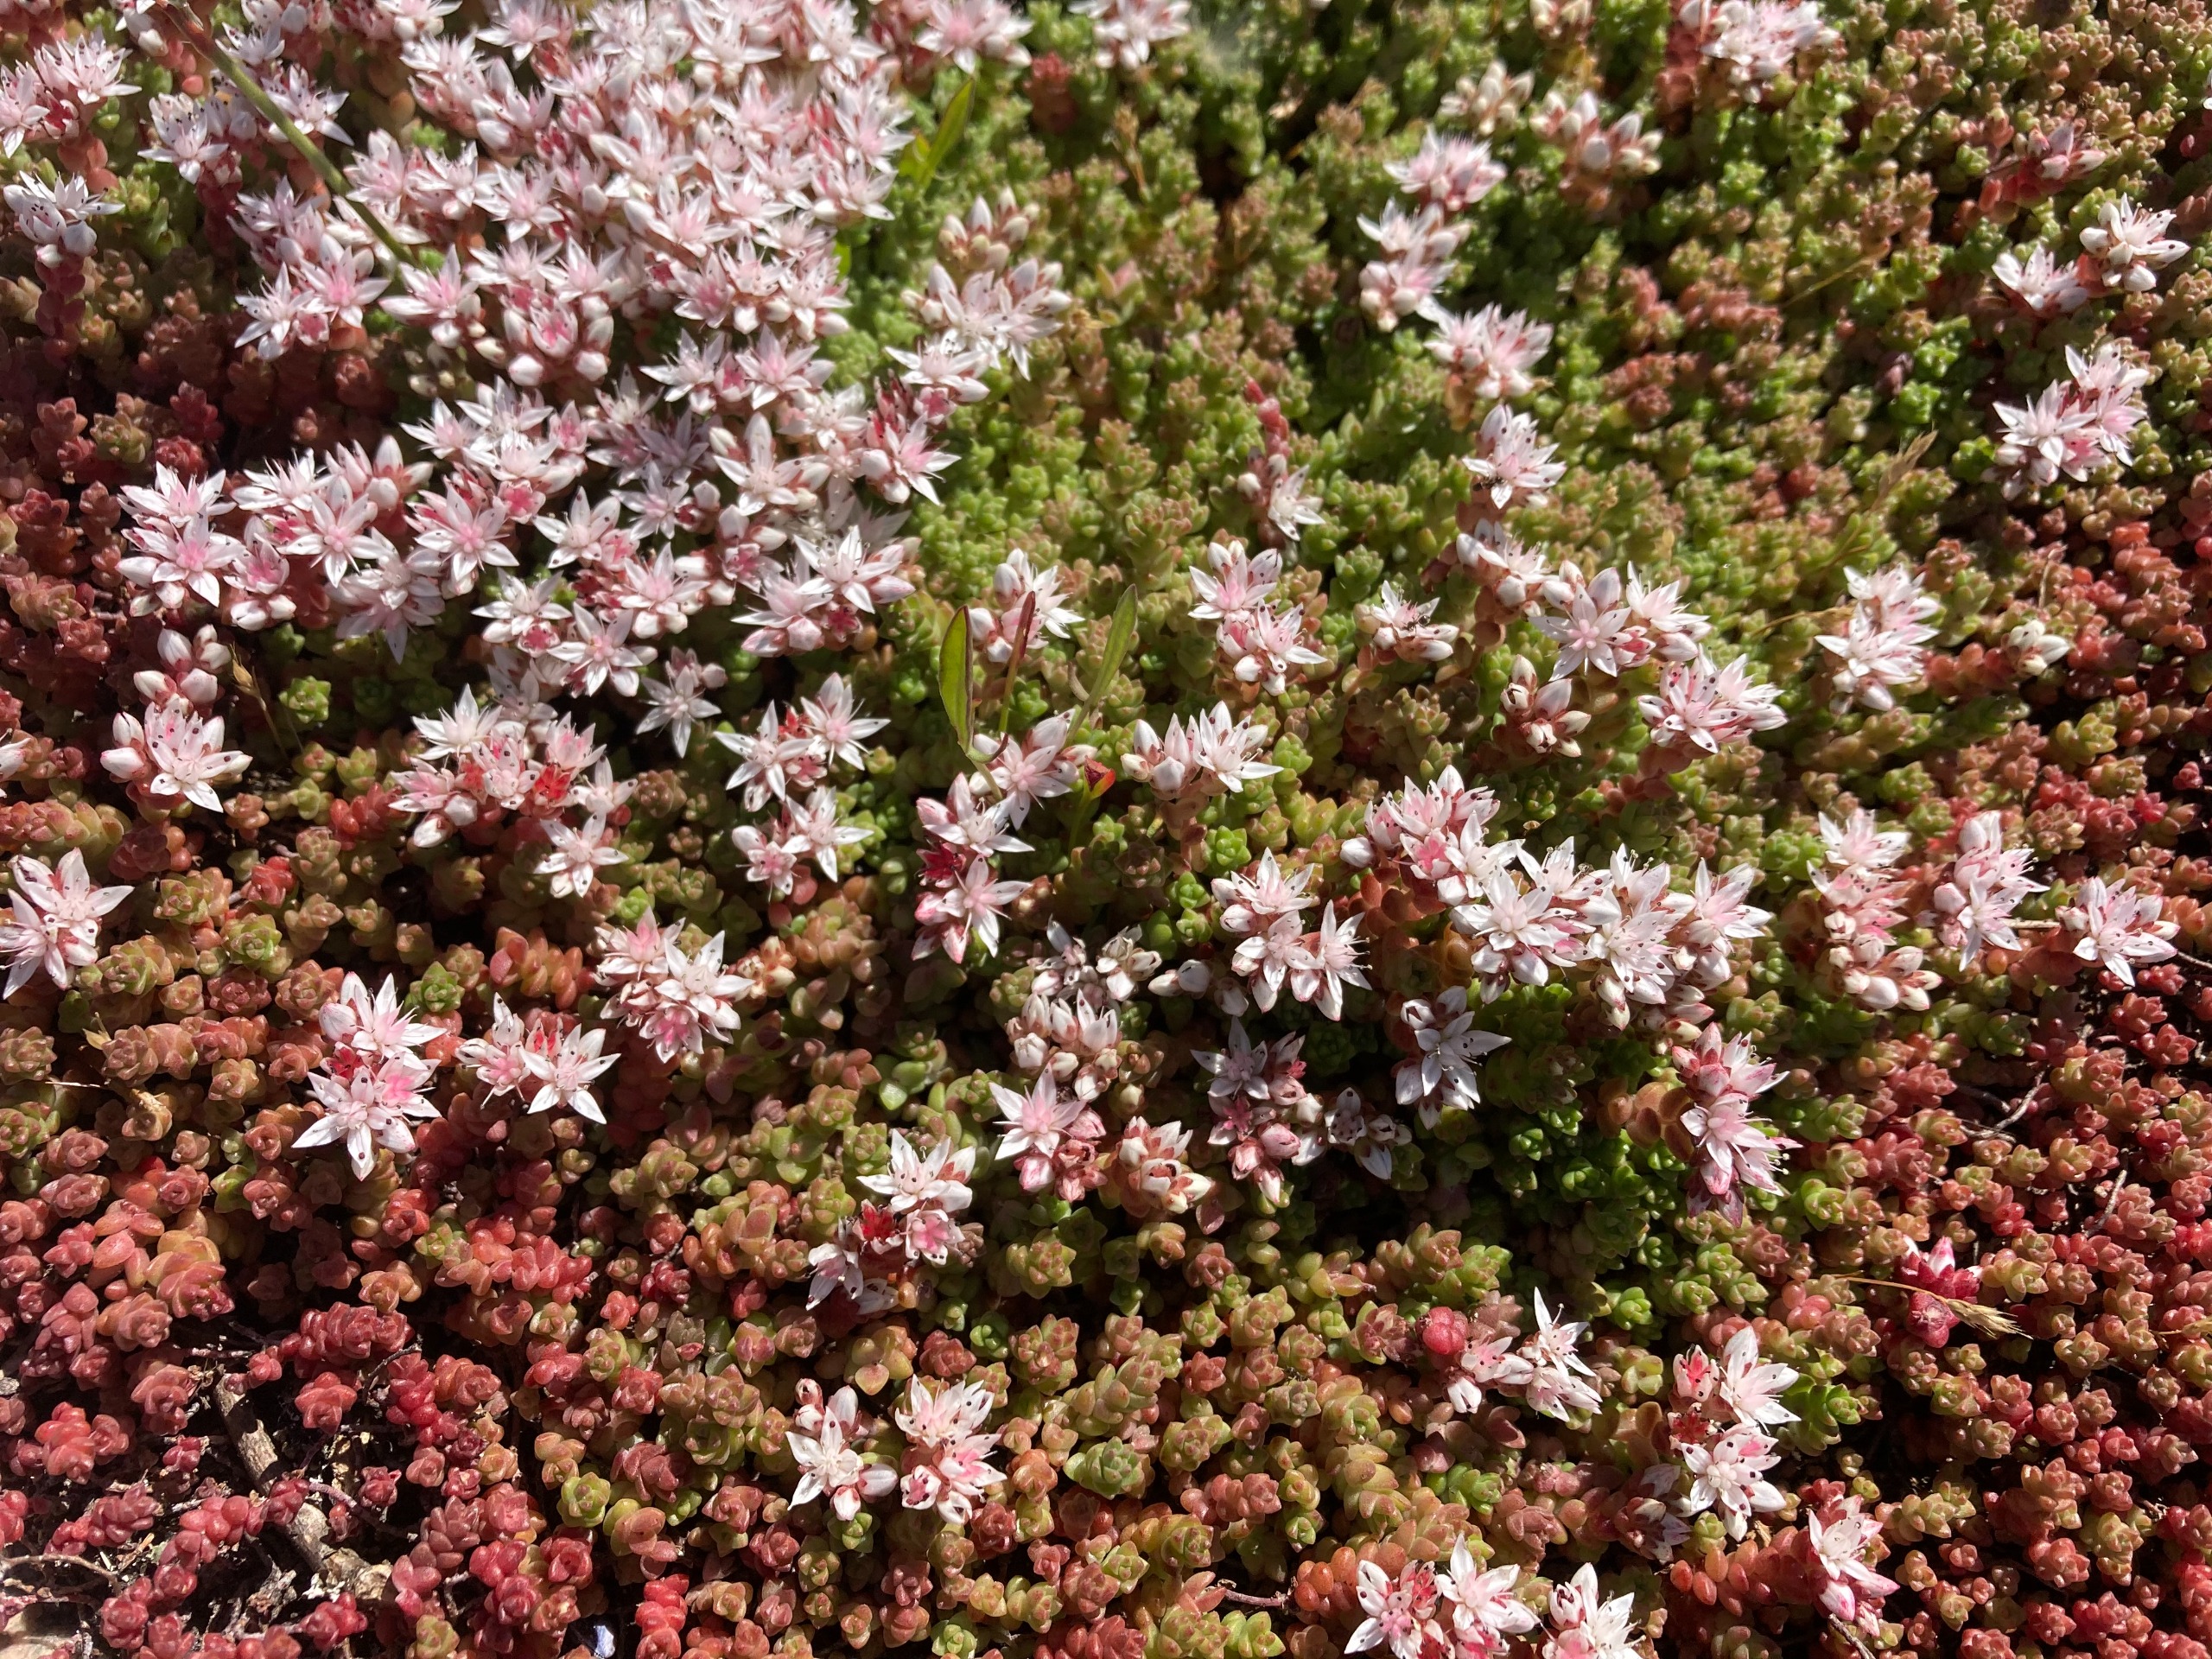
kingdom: Plantae
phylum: Tracheophyta
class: Magnoliopsida
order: Saxifragales
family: Crassulaceae
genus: Sedum
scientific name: Sedum anglicum
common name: Engelsk stenurt
